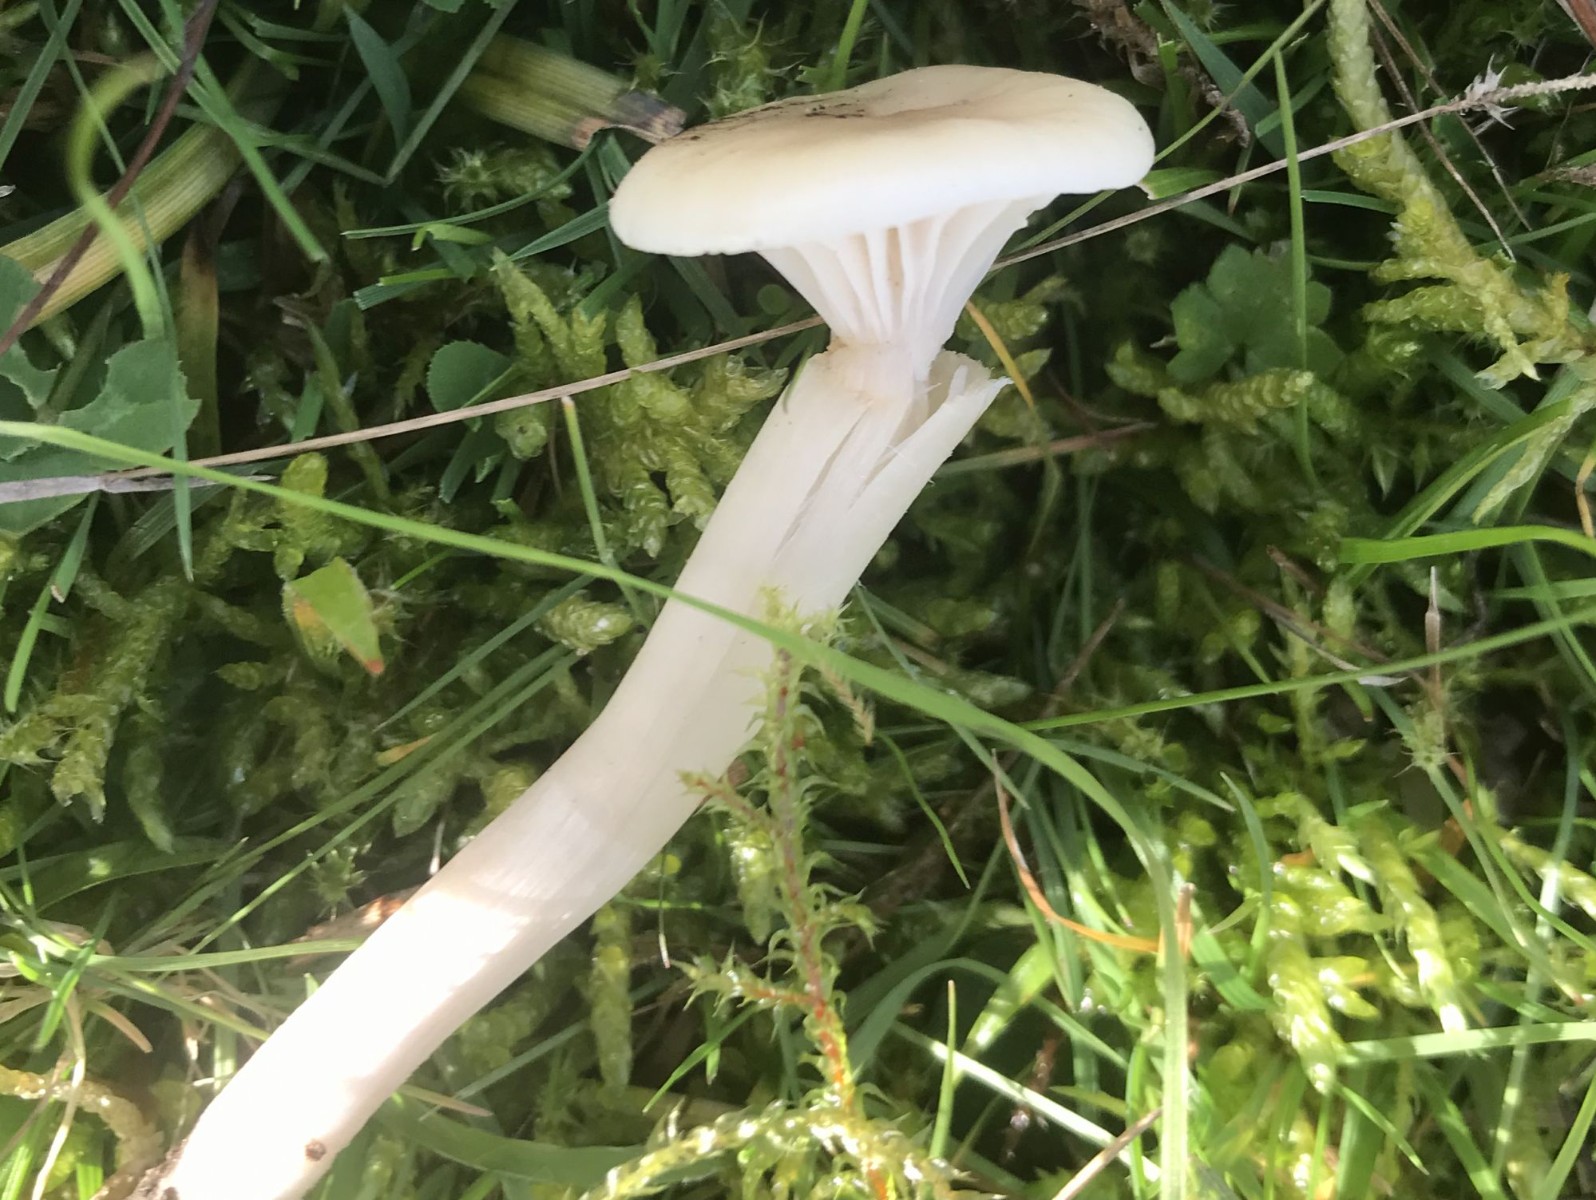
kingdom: Fungi
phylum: Basidiomycota
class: Agaricomycetes
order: Agaricales
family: Hygrophoraceae
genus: Cuphophyllus
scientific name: Cuphophyllus
